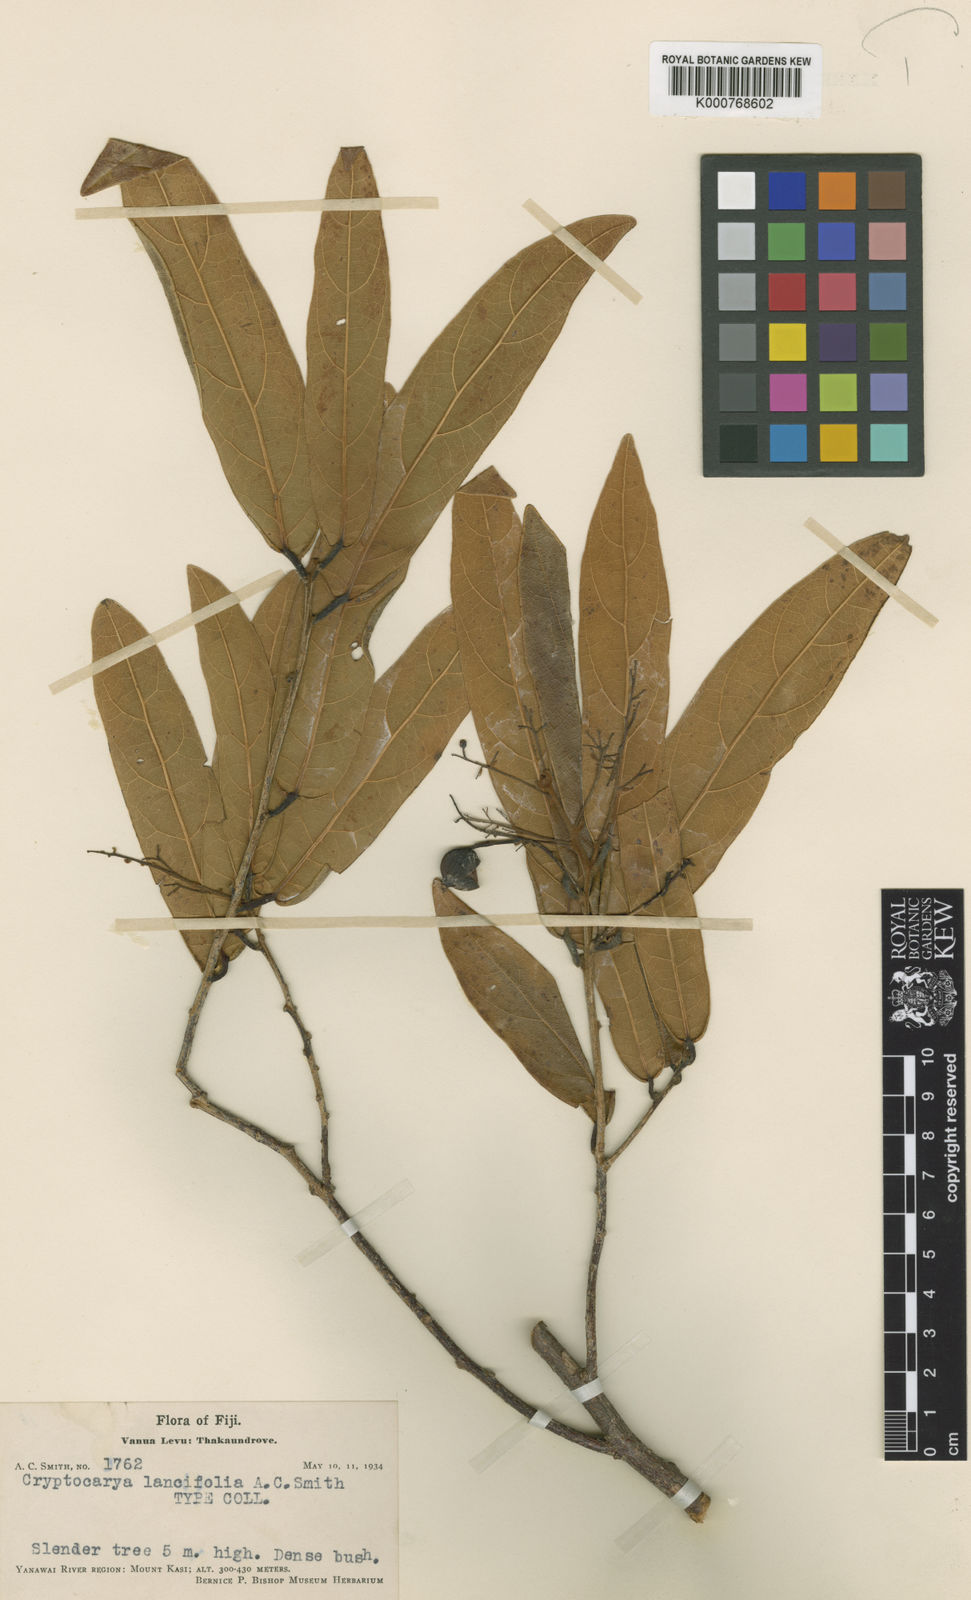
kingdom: Plantae
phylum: Tracheophyta
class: Magnoliopsida
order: Laurales
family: Lauraceae
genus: Cryptocarya
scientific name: Cryptocarya lancifolia
